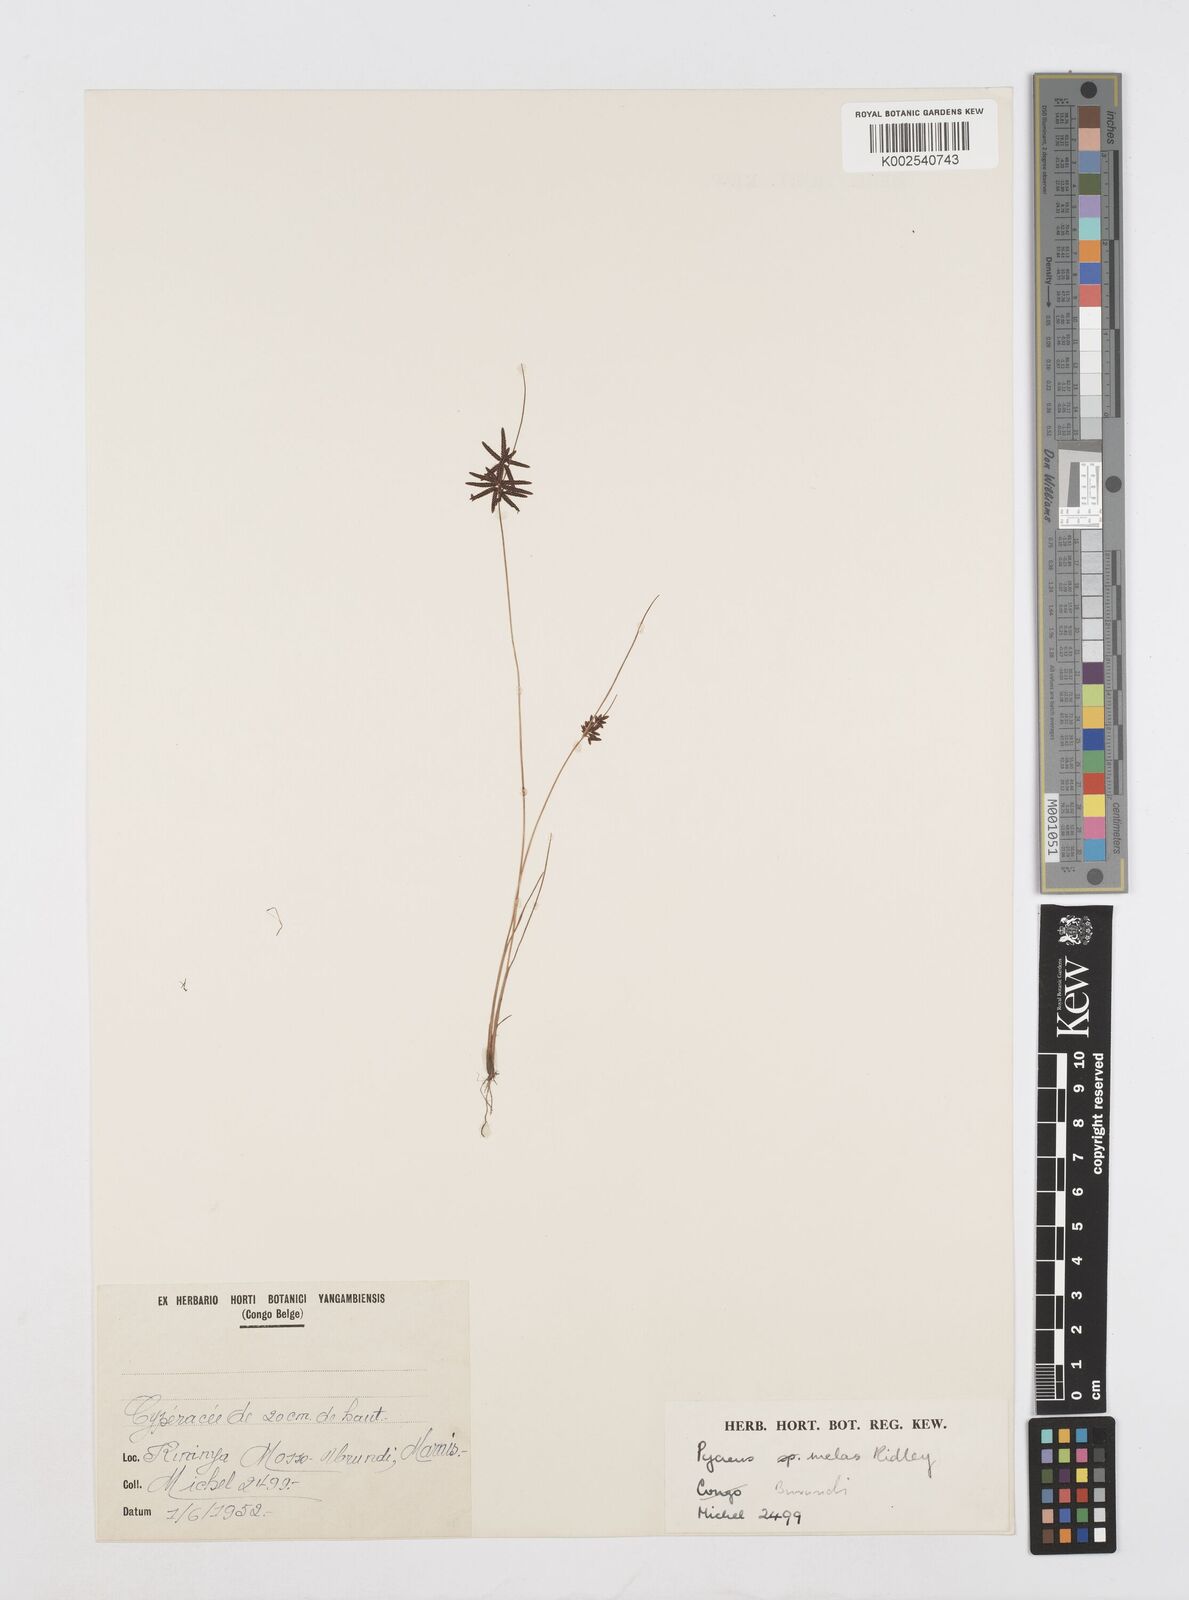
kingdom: Plantae
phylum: Tracheophyta
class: Liliopsida
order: Poales
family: Cyperaceae
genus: Cyperus
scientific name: Cyperus melas
